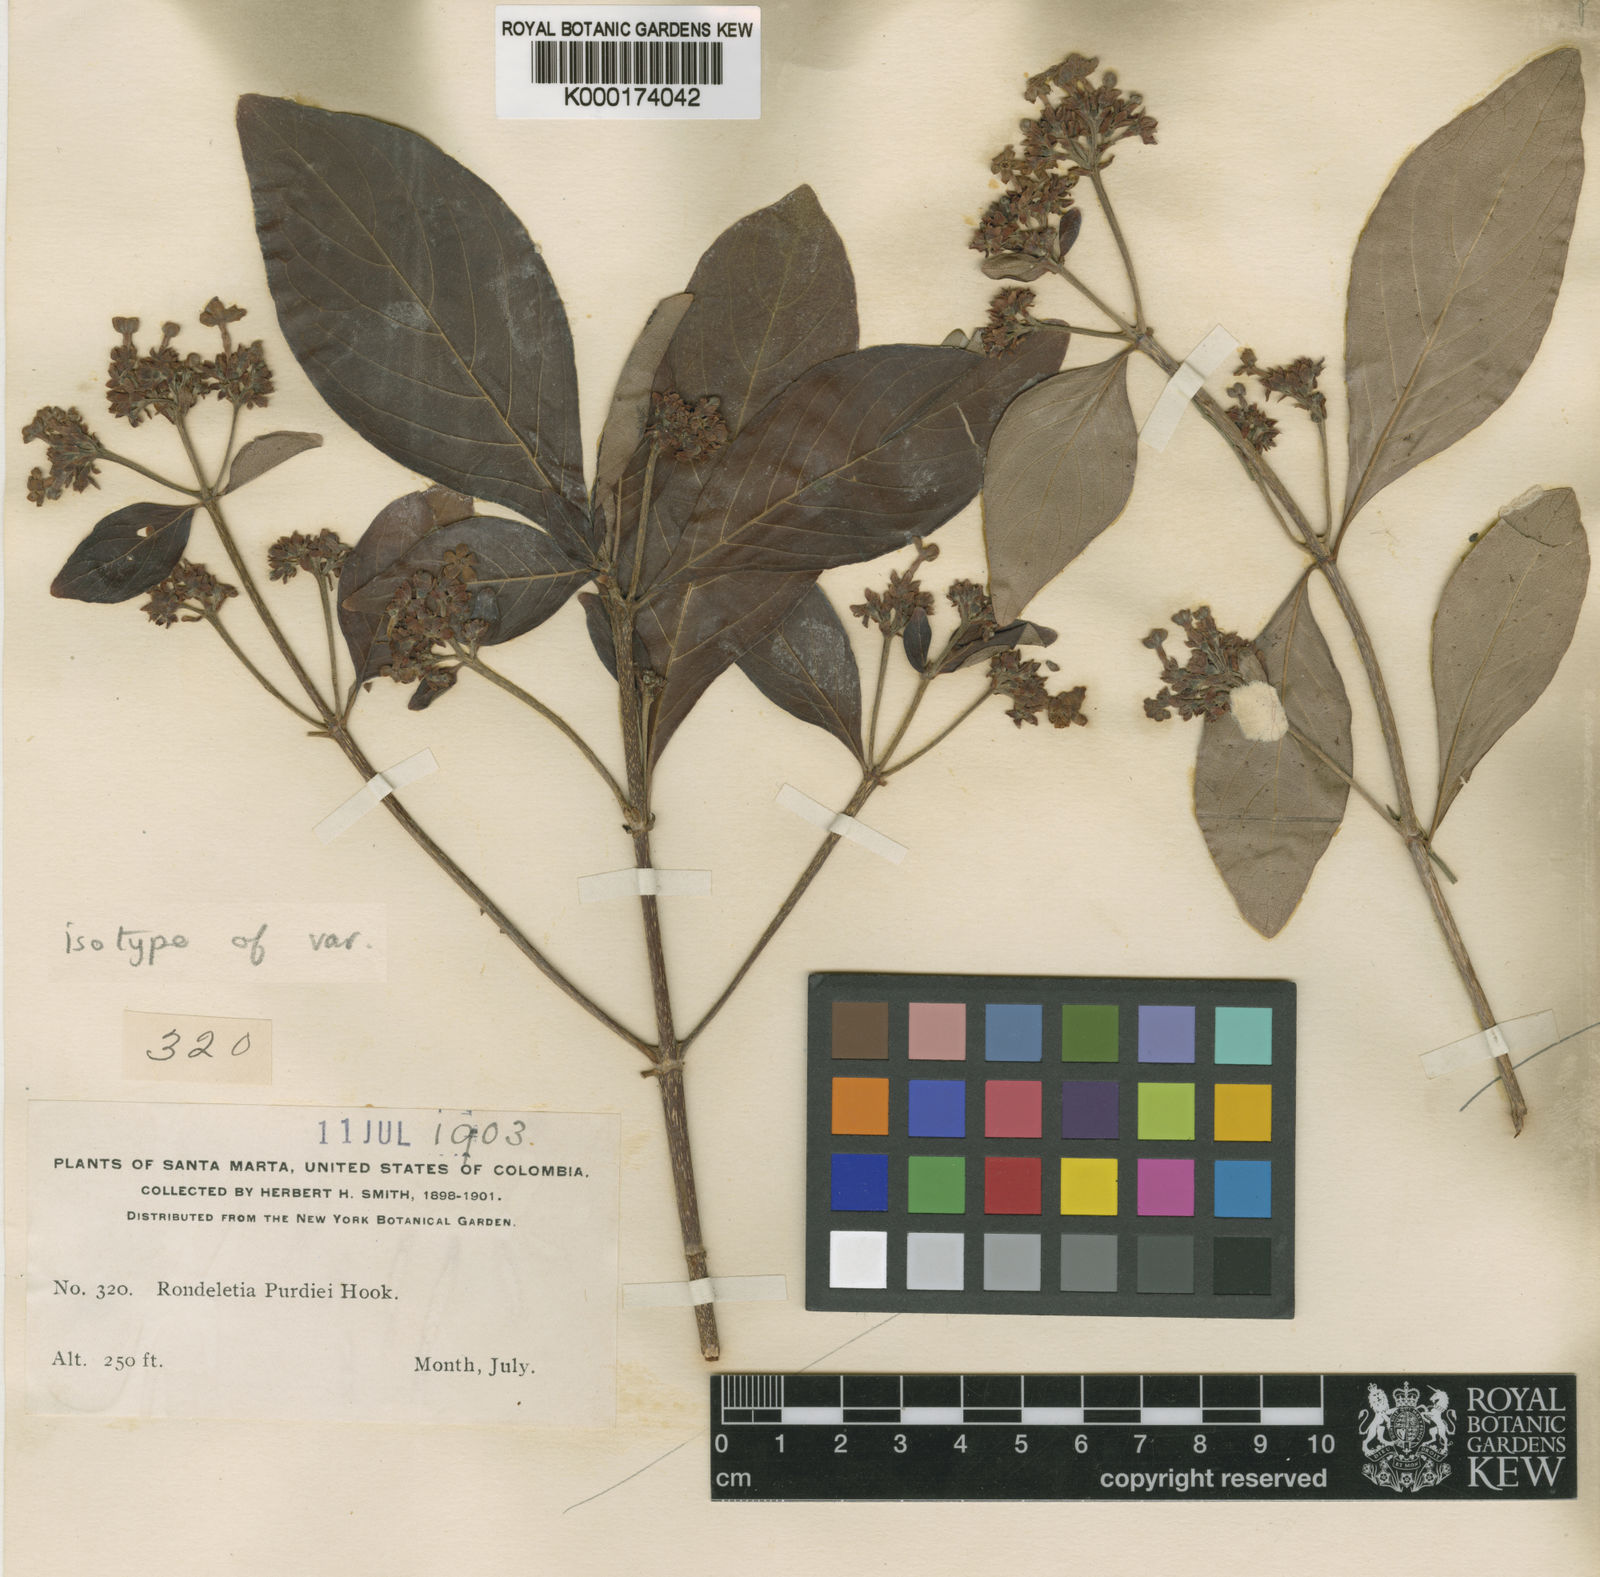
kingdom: Plantae
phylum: Tracheophyta
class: Magnoliopsida
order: Gentianales
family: Rubiaceae
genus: Rondeletia
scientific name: Rondeletia purdiei
